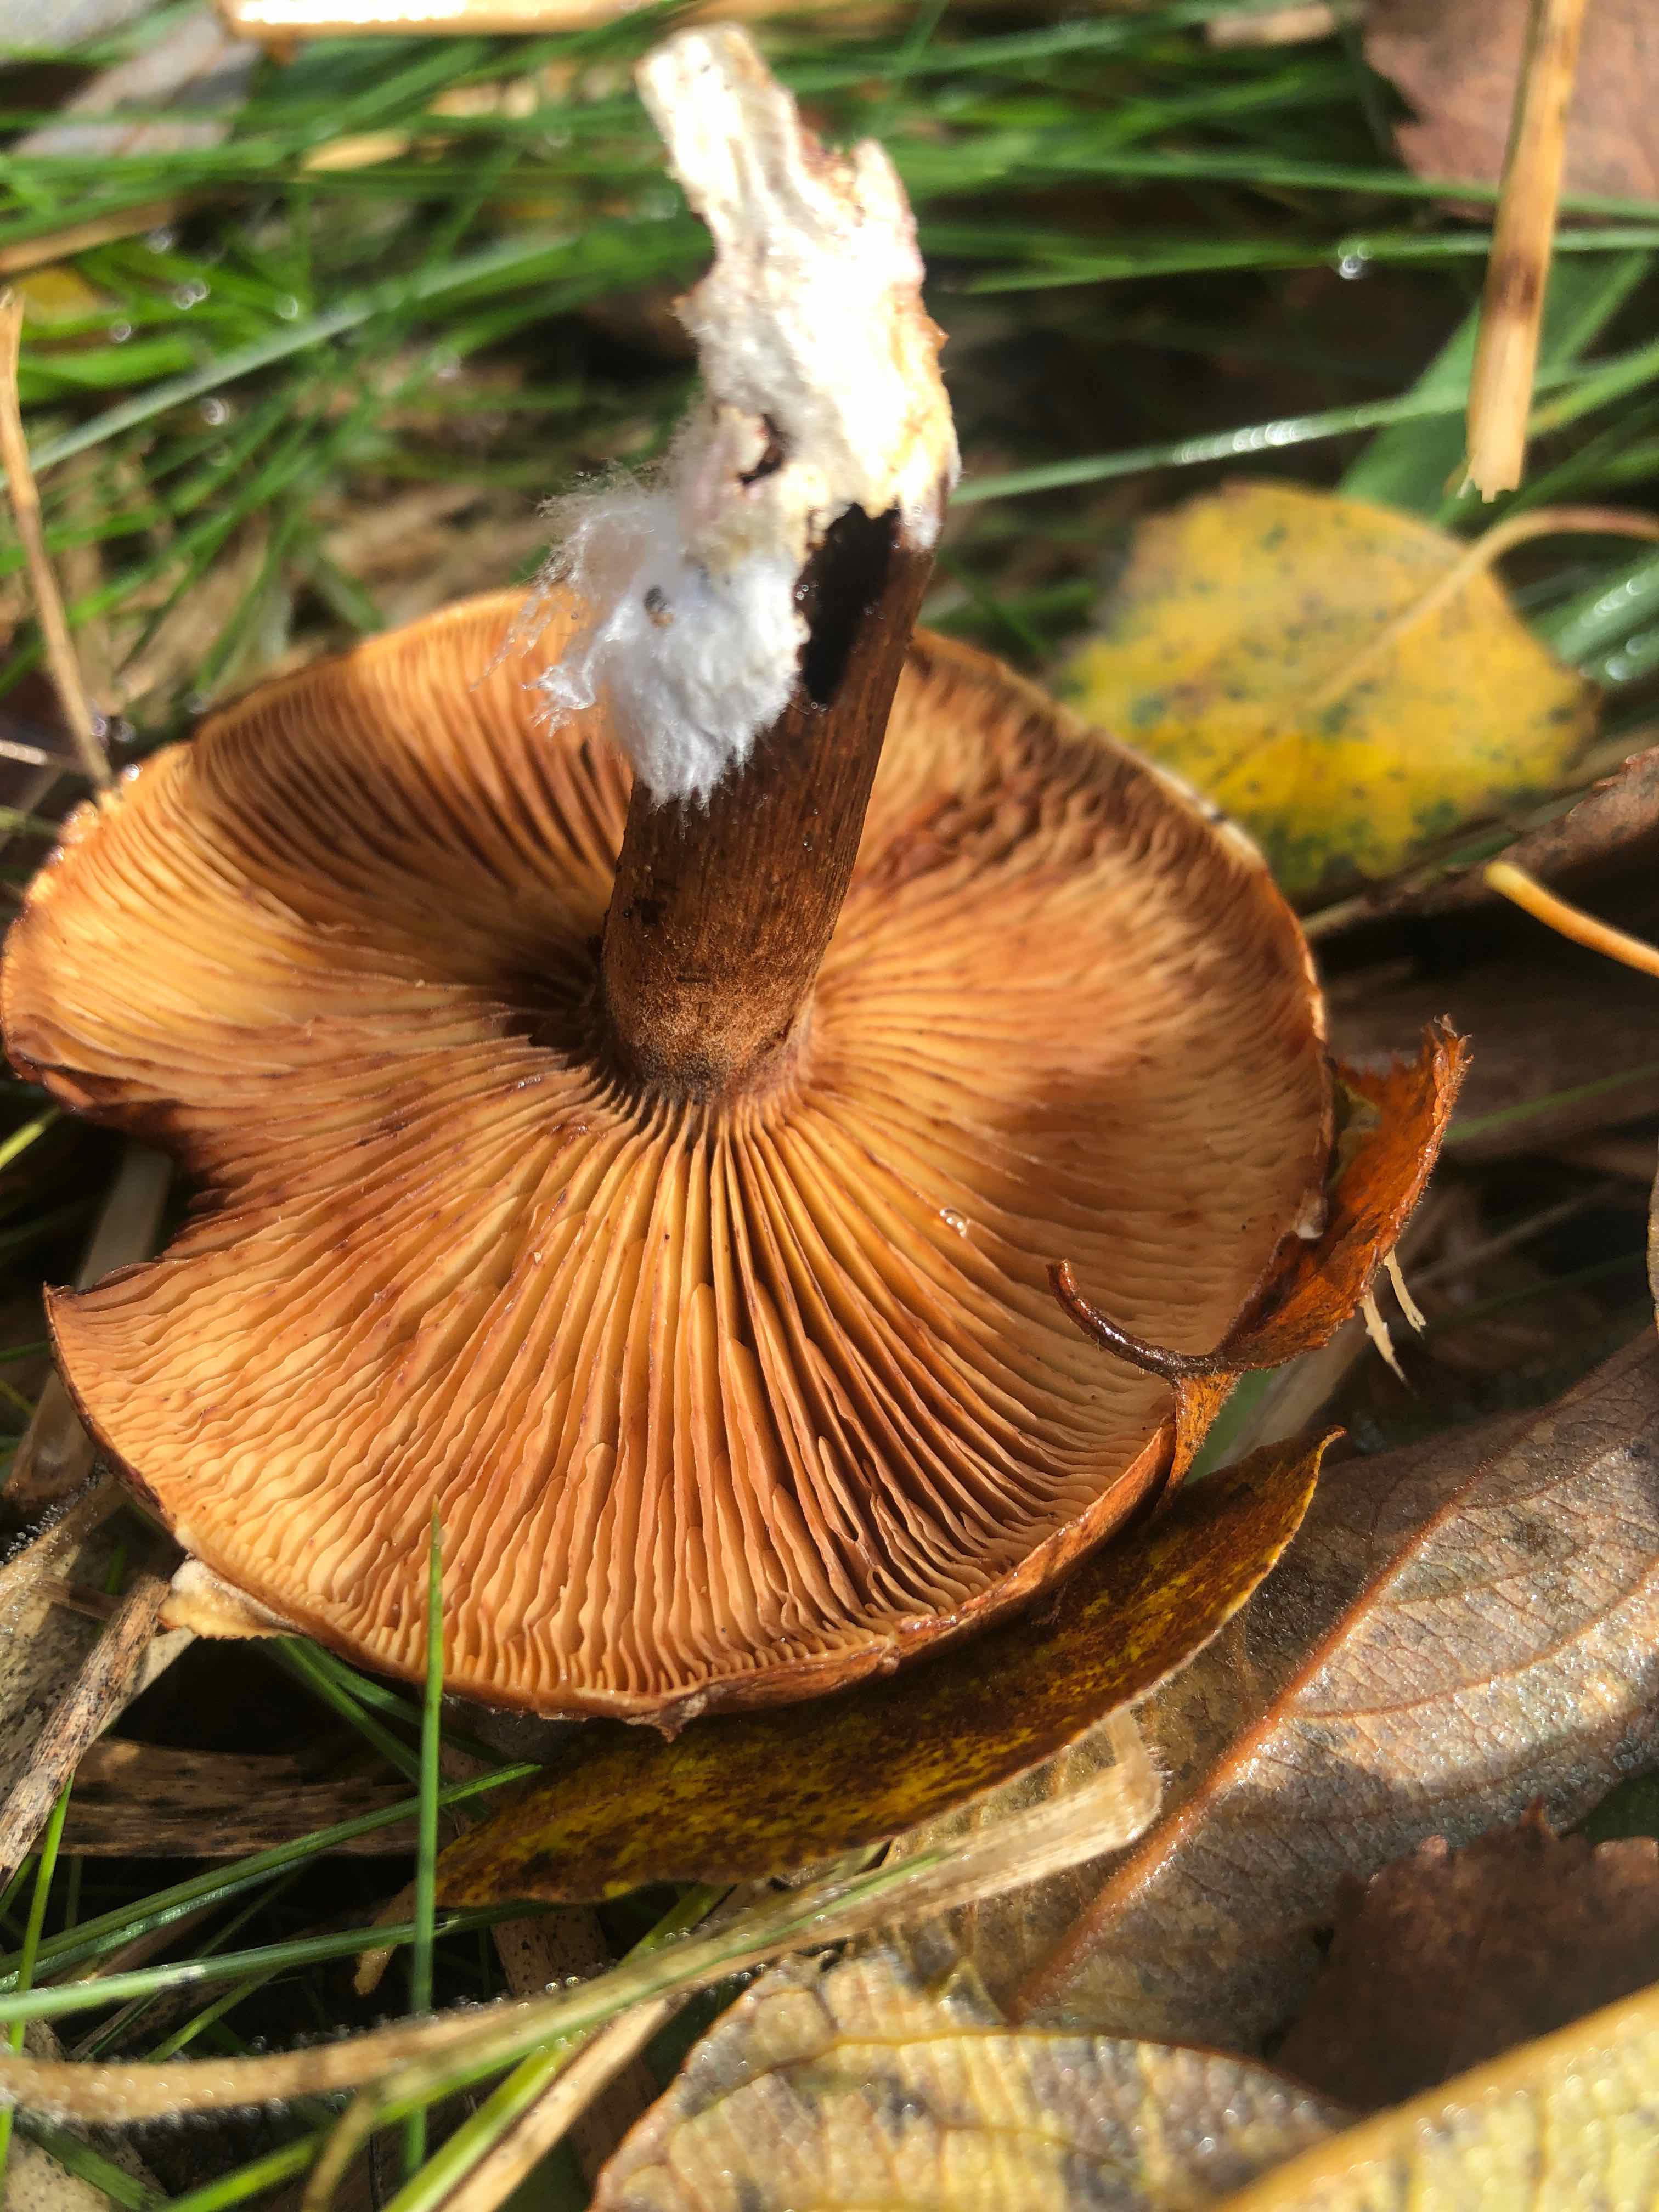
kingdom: Fungi
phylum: Basidiomycota
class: Agaricomycetes
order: Agaricales
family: Tricholomataceae
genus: Tricholoma
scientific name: Tricholoma fulvum
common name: birke-ridderhat
